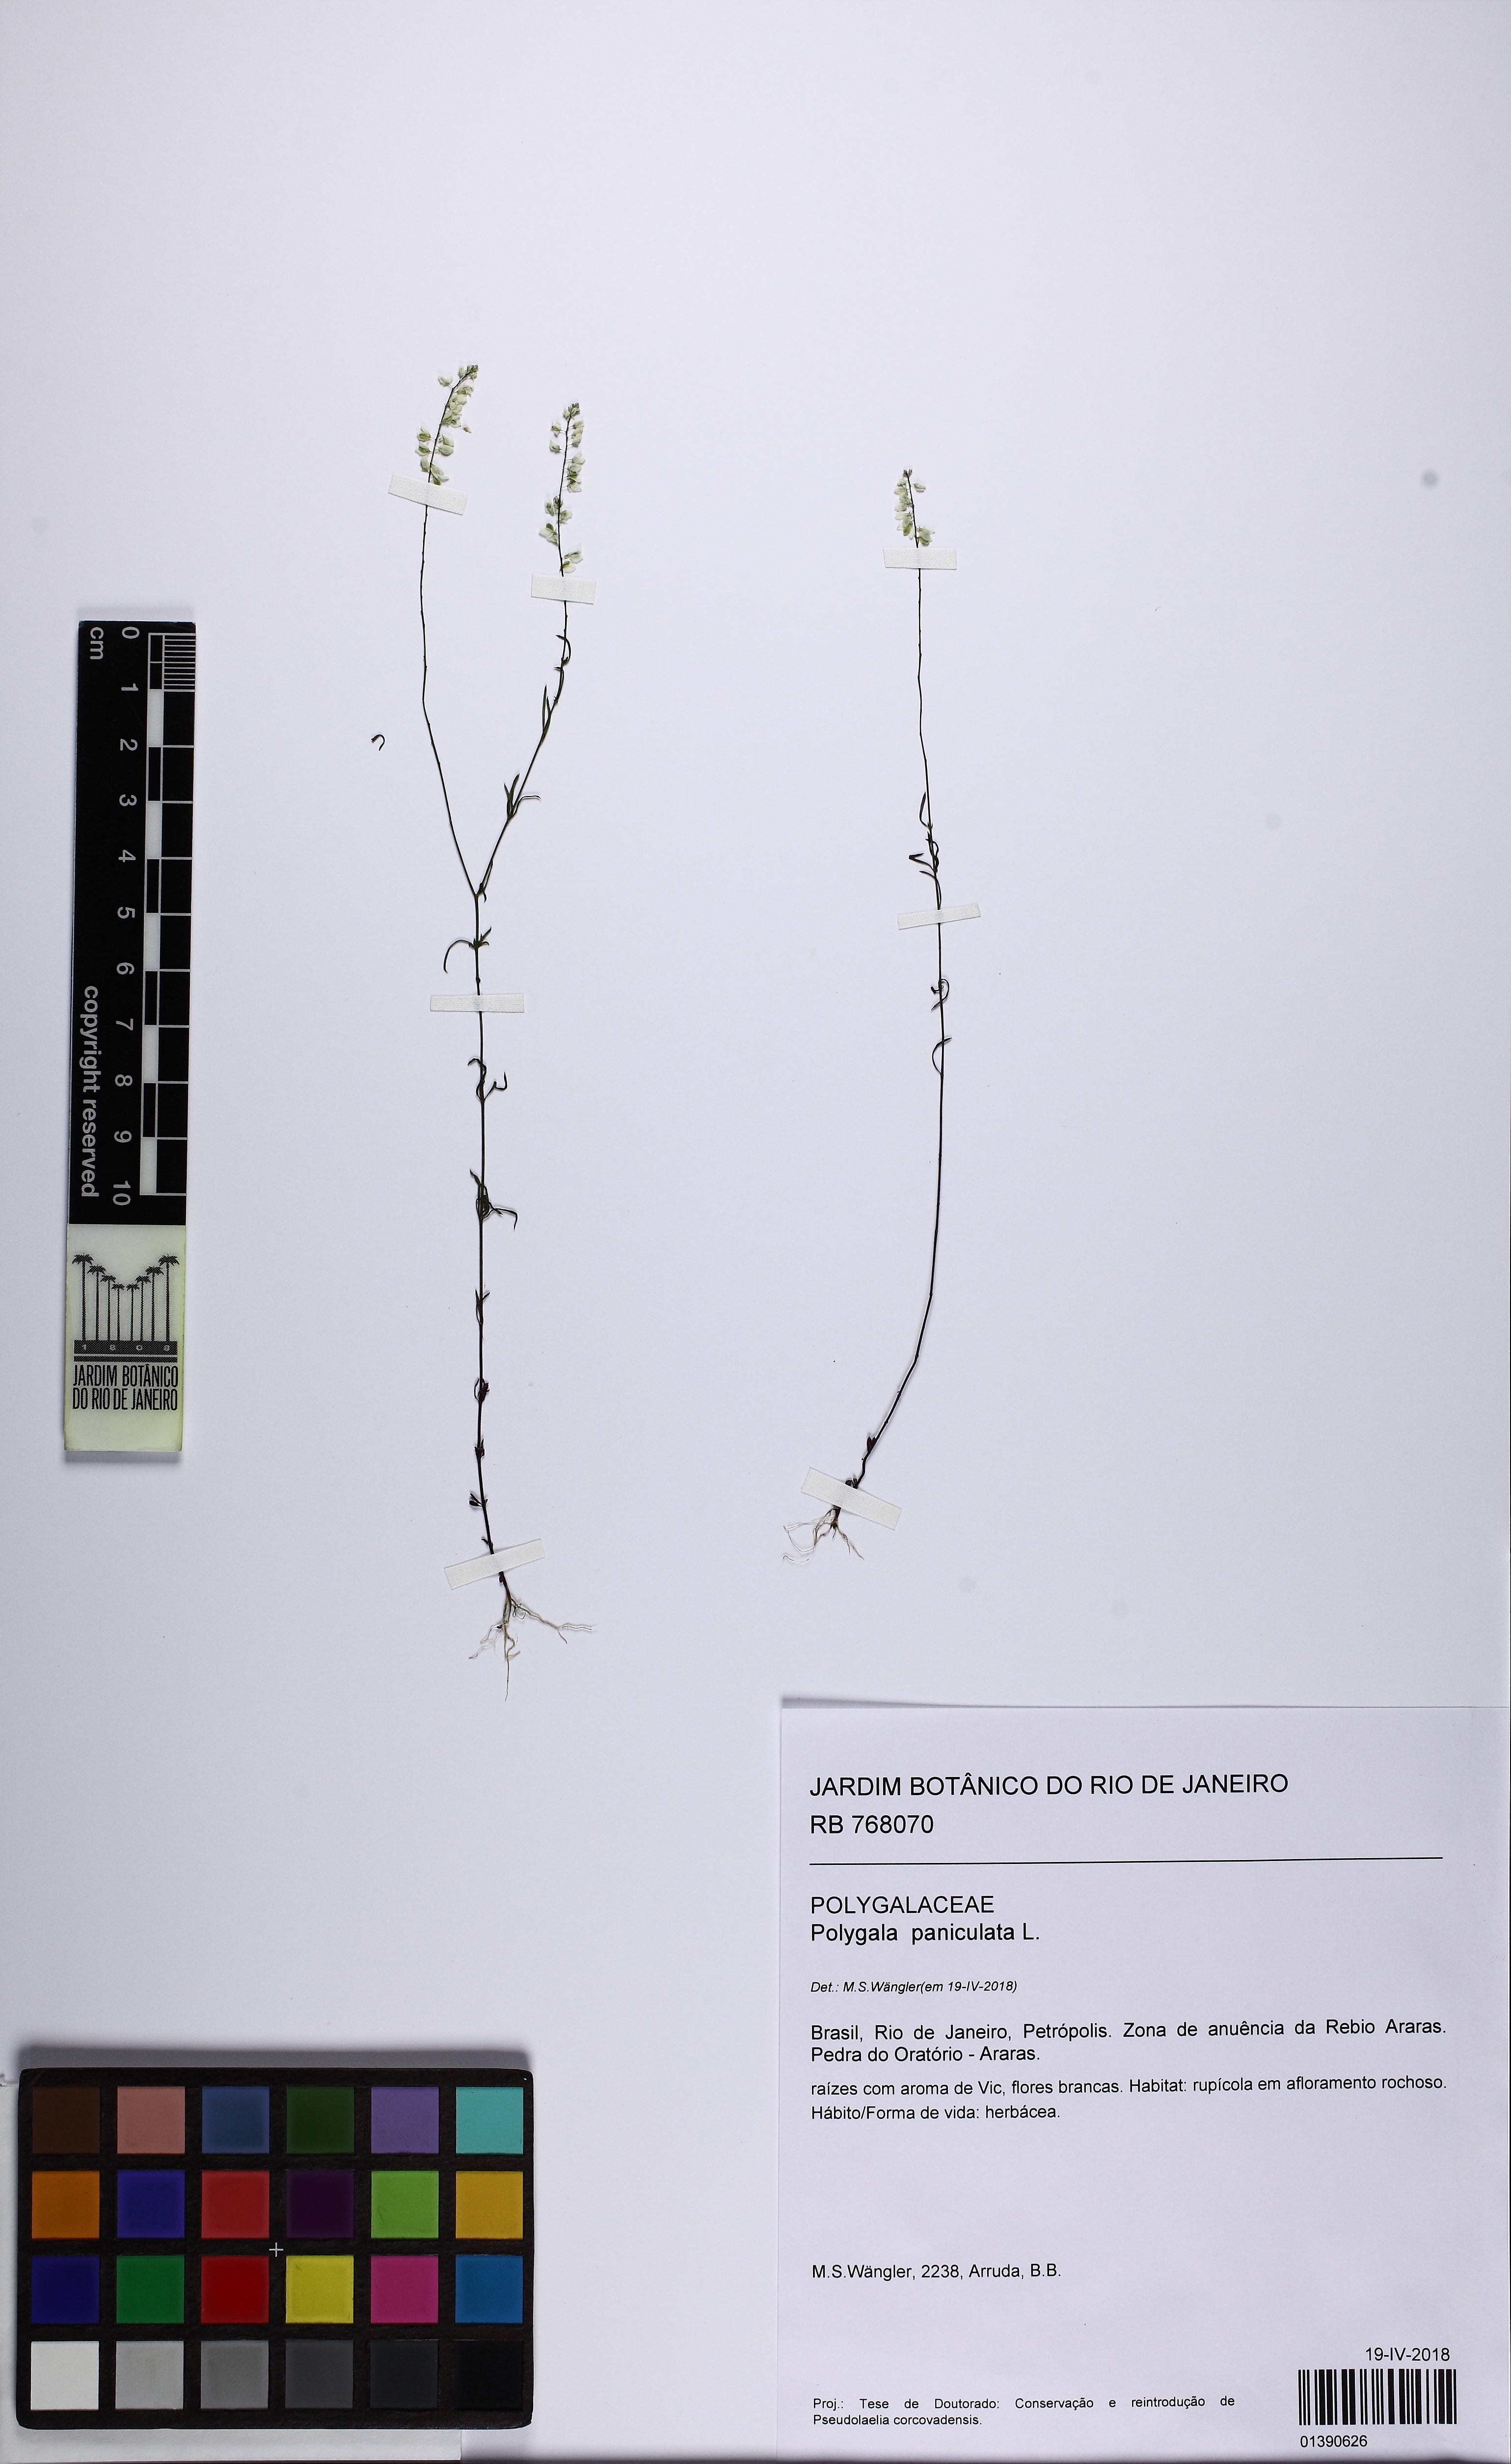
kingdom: Plantae
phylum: Tracheophyta
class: Magnoliopsida
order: Fabales
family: Polygalaceae
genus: Polygala
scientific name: Polygala paniculata
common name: Orosne
